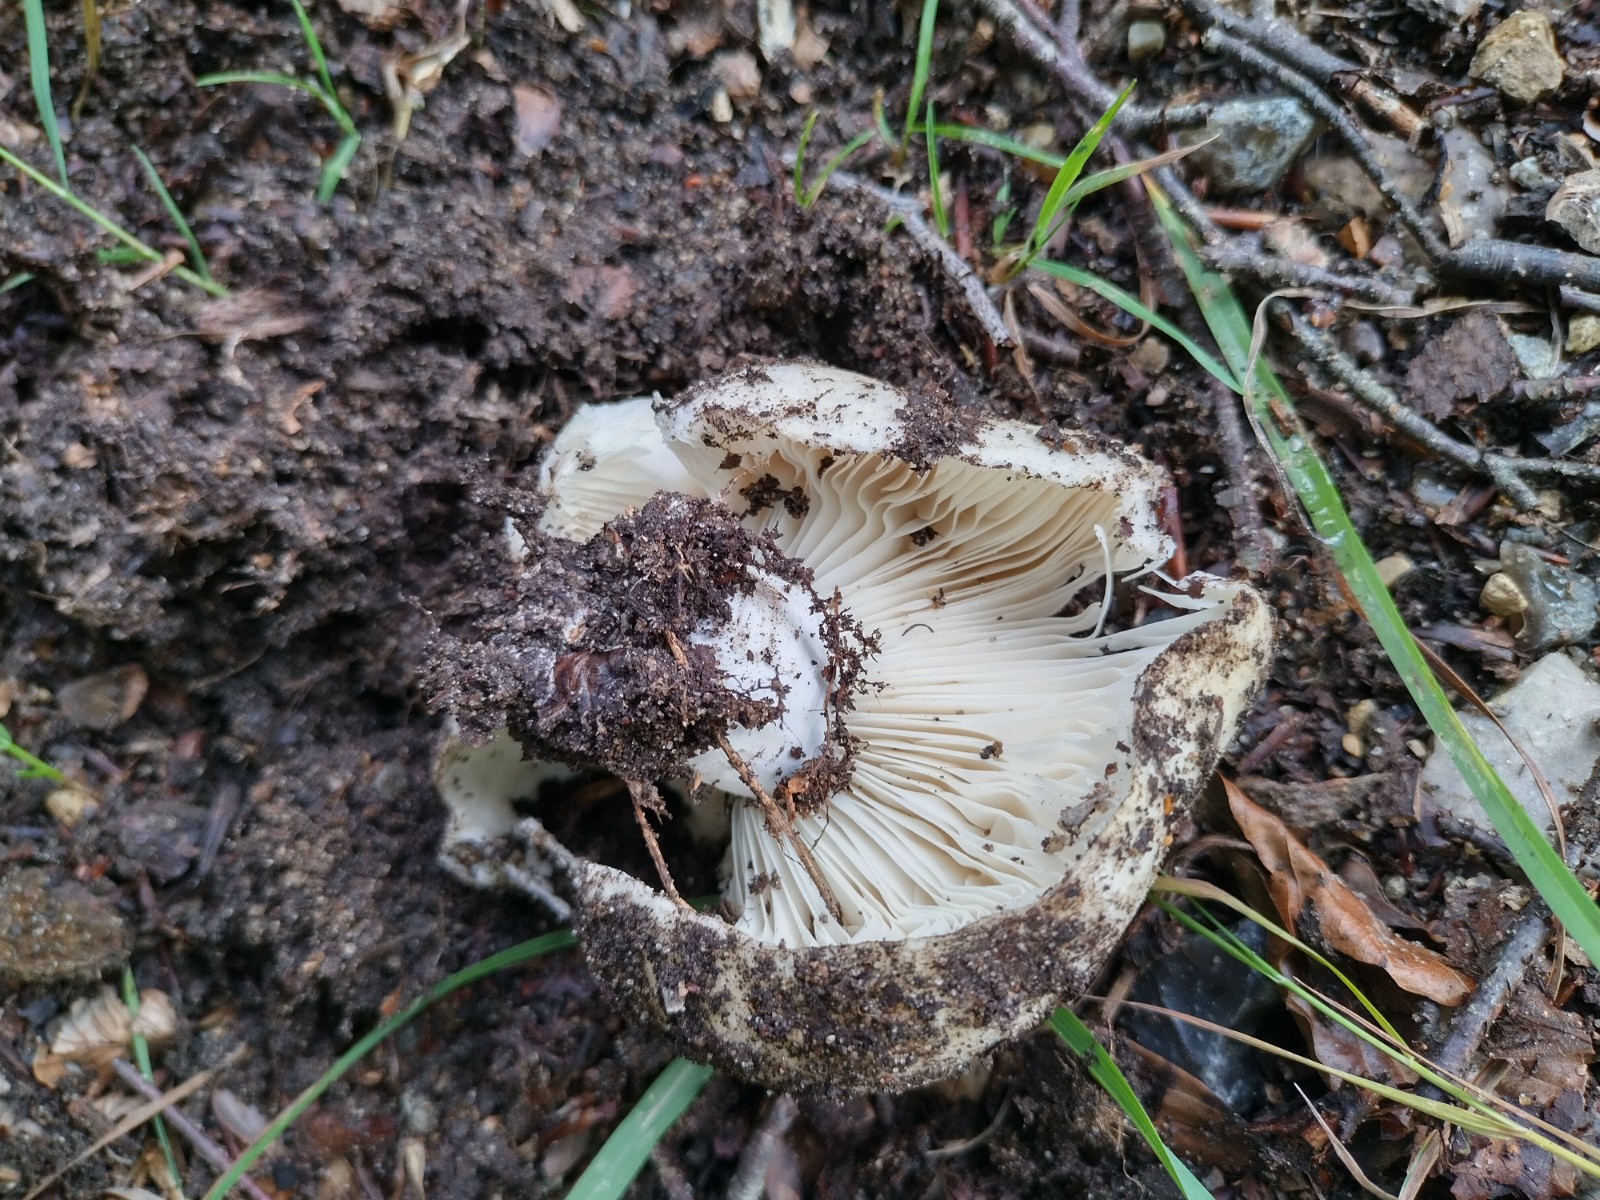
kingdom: Fungi
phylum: Basidiomycota
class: Agaricomycetes
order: Russulales
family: Russulaceae
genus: Russula
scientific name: Russula delica
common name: almindelig tragt-skørhat
